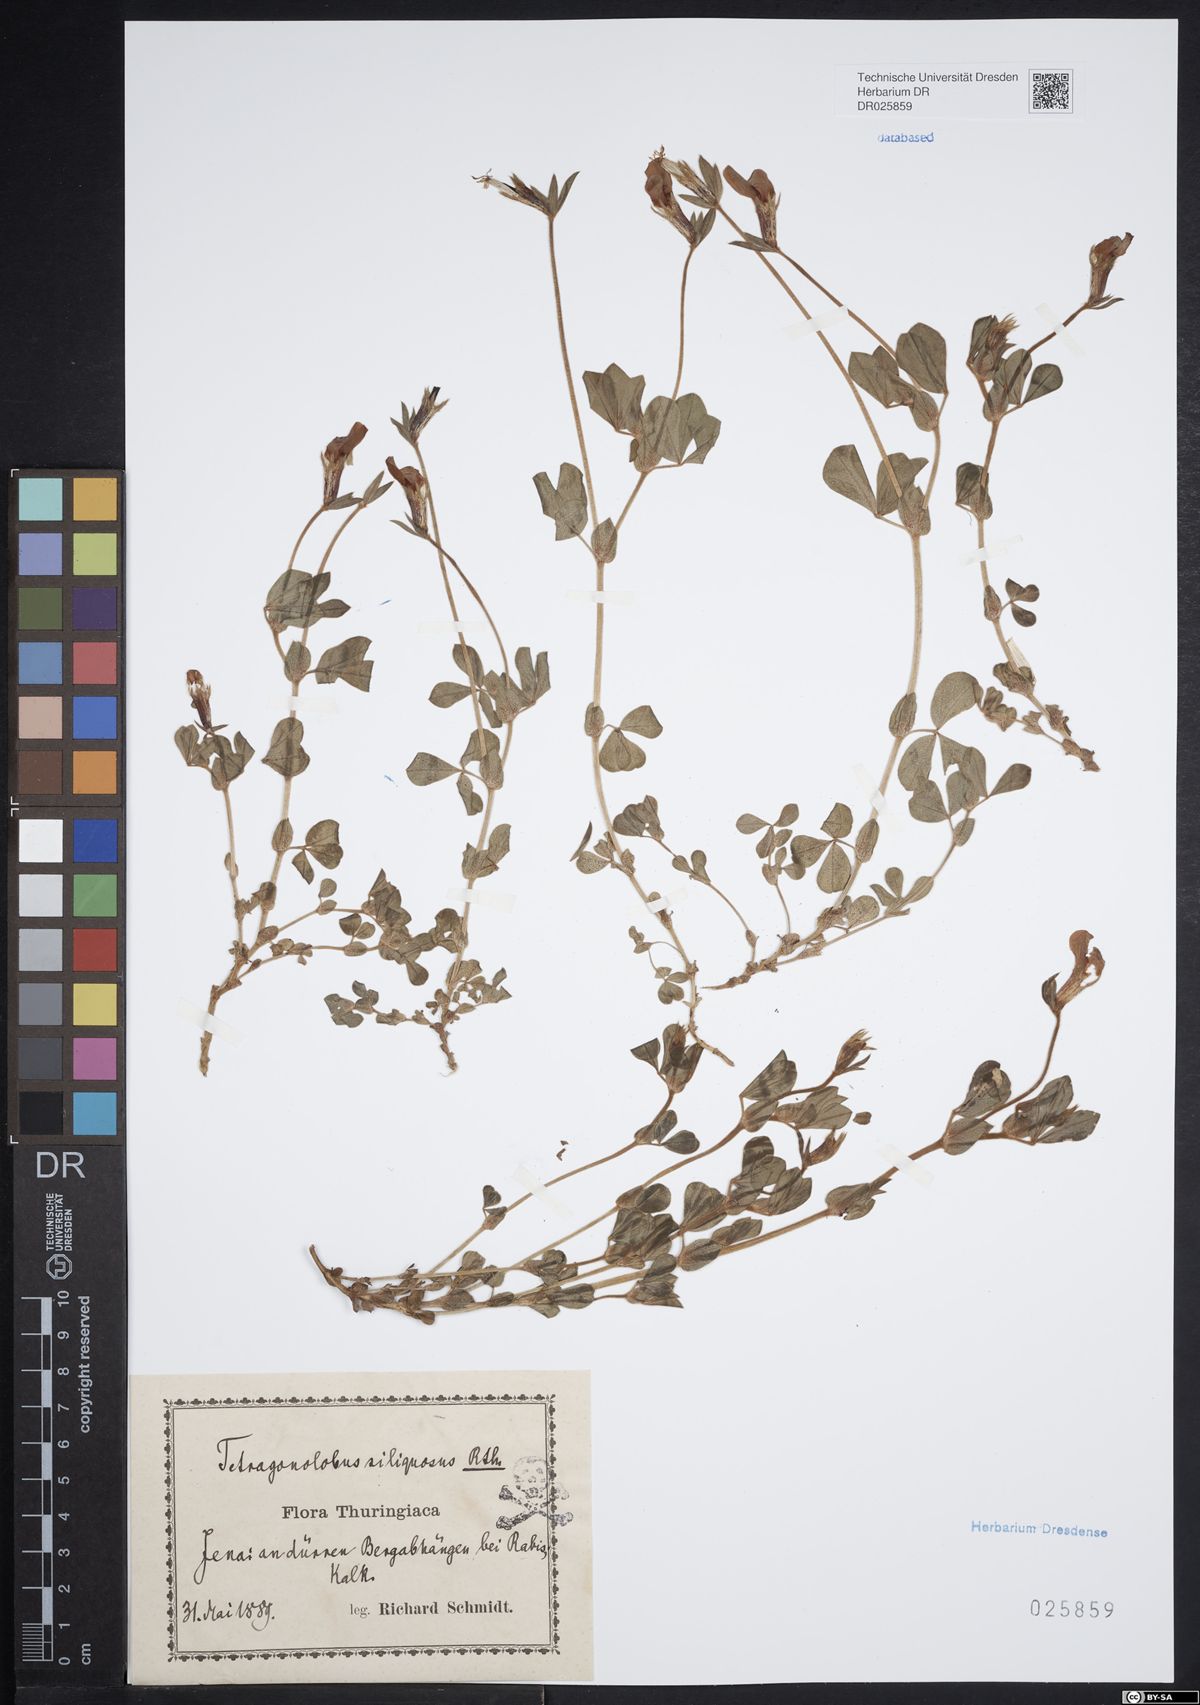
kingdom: Plantae
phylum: Tracheophyta
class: Magnoliopsida
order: Fabales
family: Fabaceae
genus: Lotus
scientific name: Lotus maritimus
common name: Dragon's-teeth
